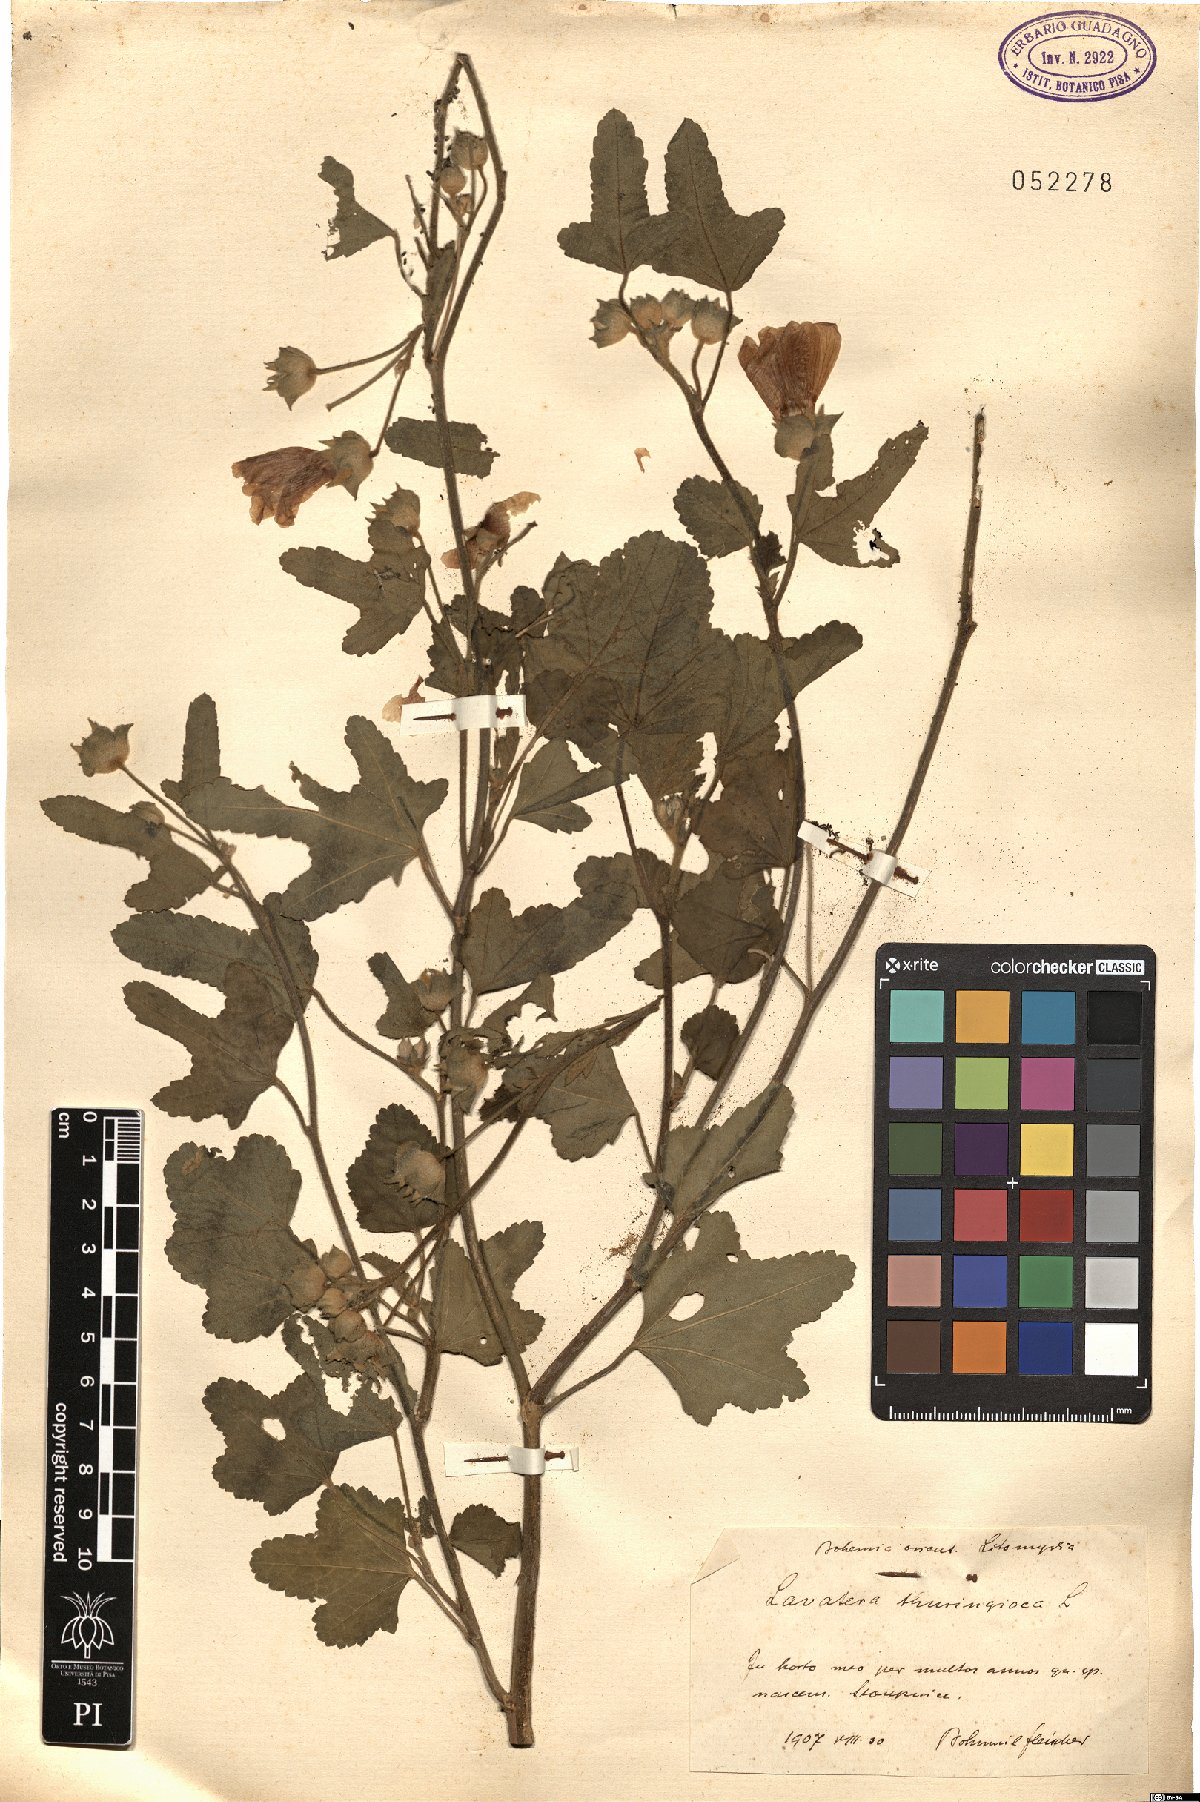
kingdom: Plantae
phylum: Tracheophyta
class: Magnoliopsida
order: Malvales
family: Malvaceae
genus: Malva
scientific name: Malva thuringiaca
